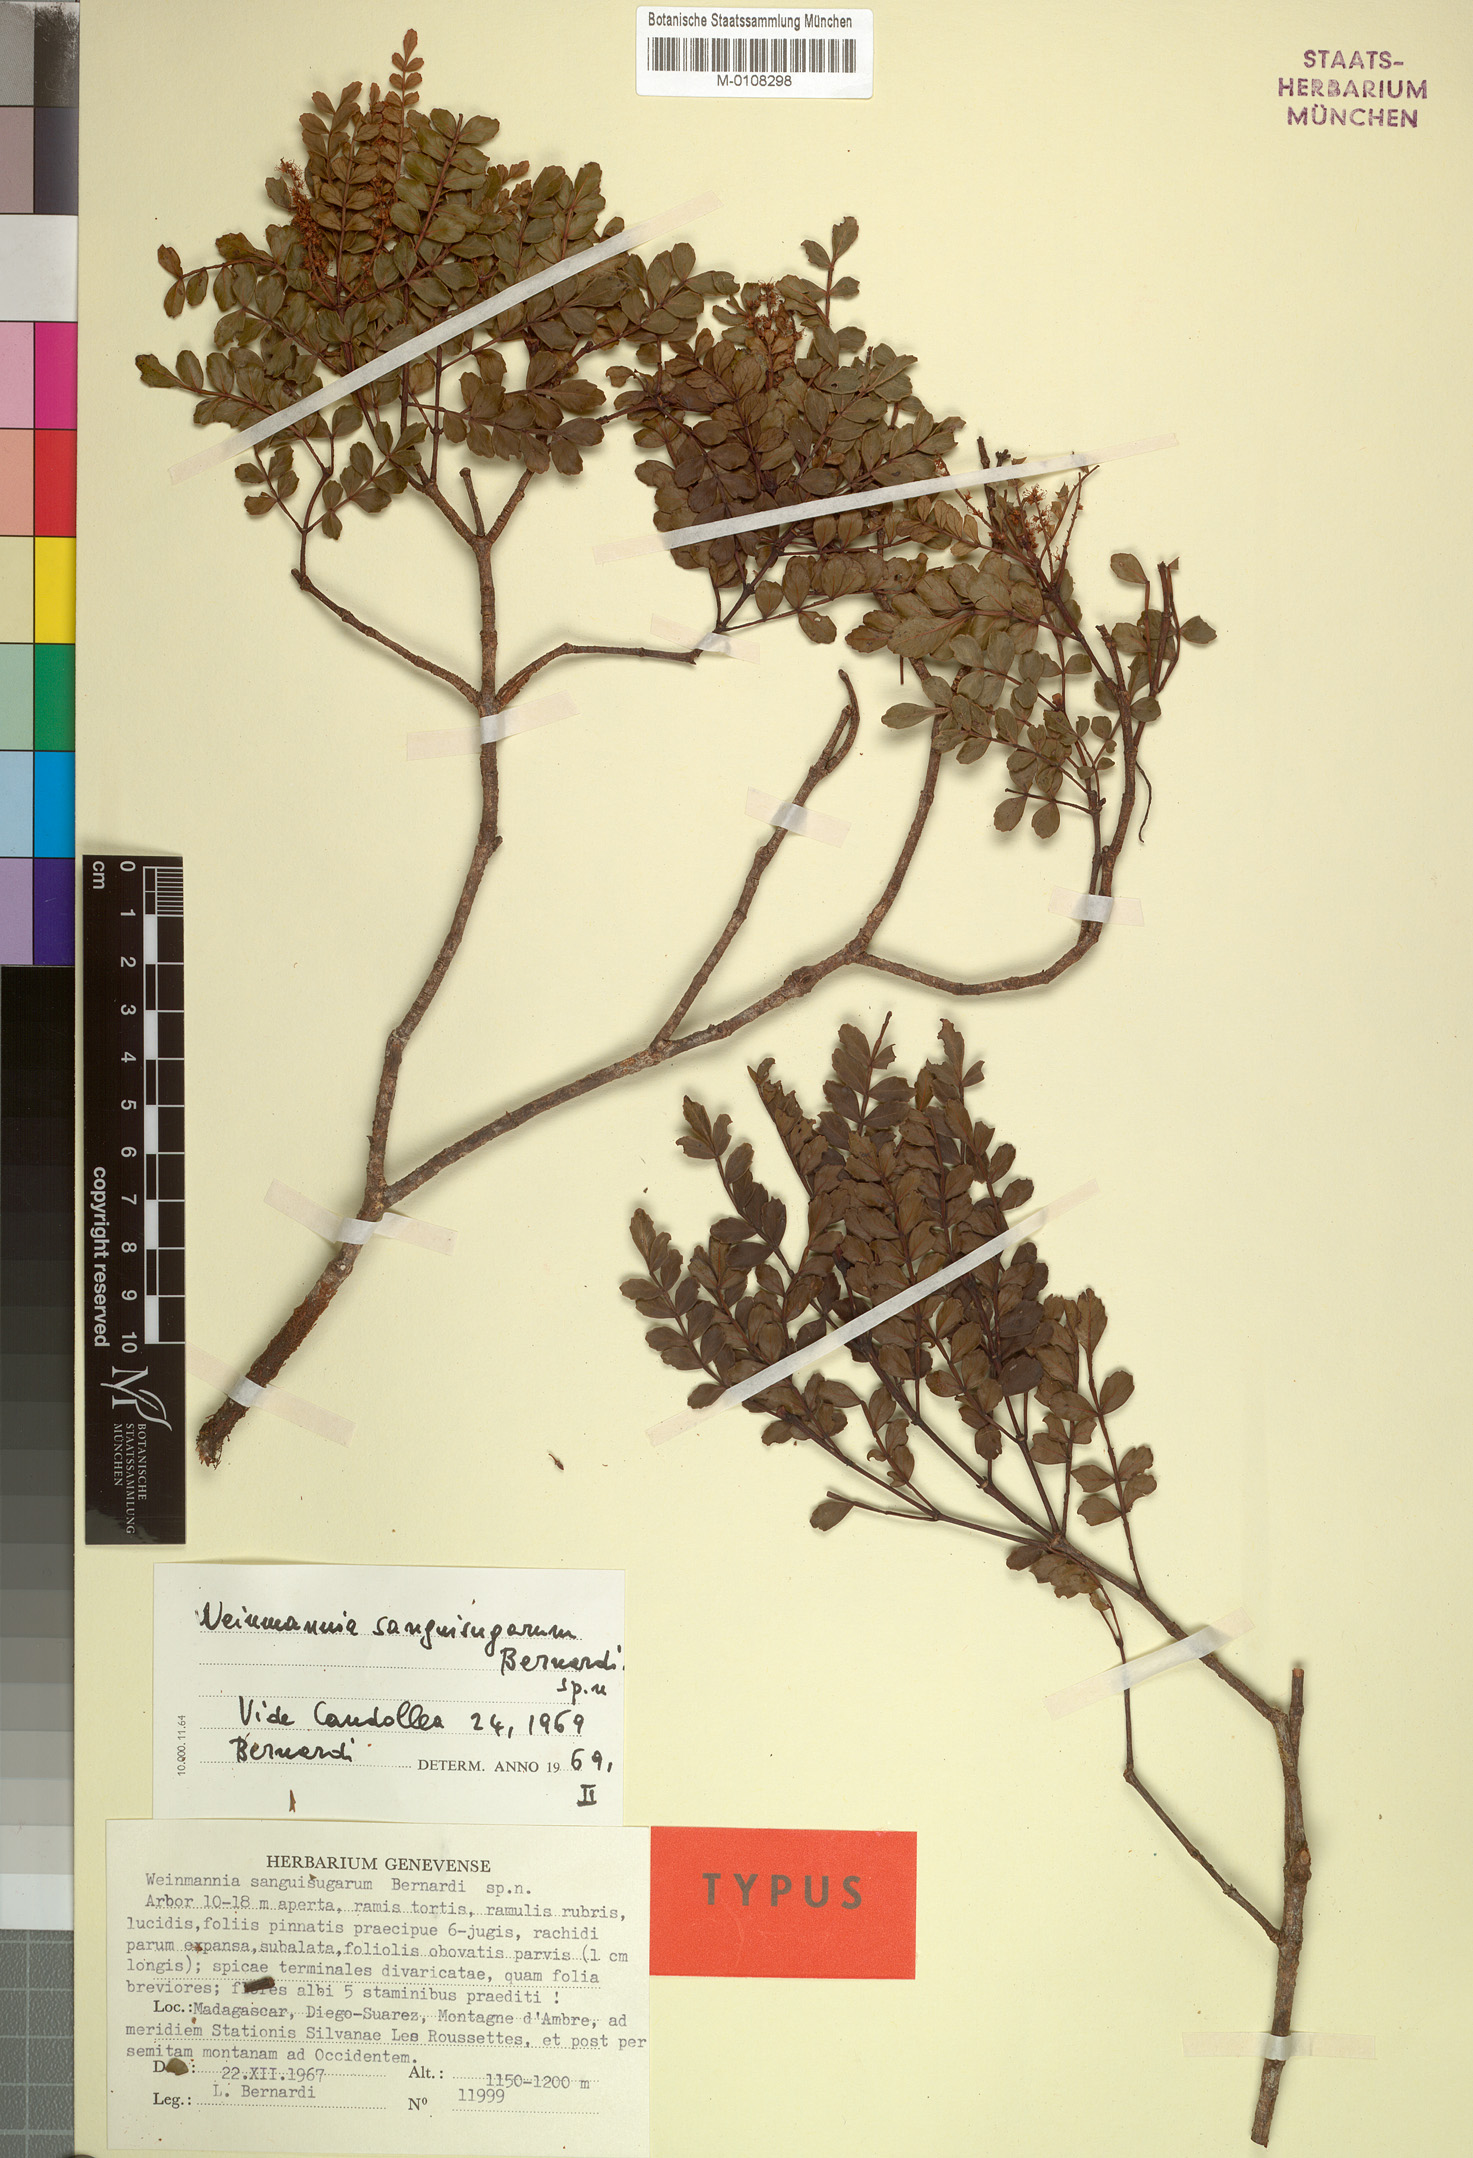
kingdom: Plantae
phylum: Tracheophyta
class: Magnoliopsida
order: Oxalidales
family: Cunoniaceae
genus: Pterophylla
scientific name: Pterophylla sanguisugarum
